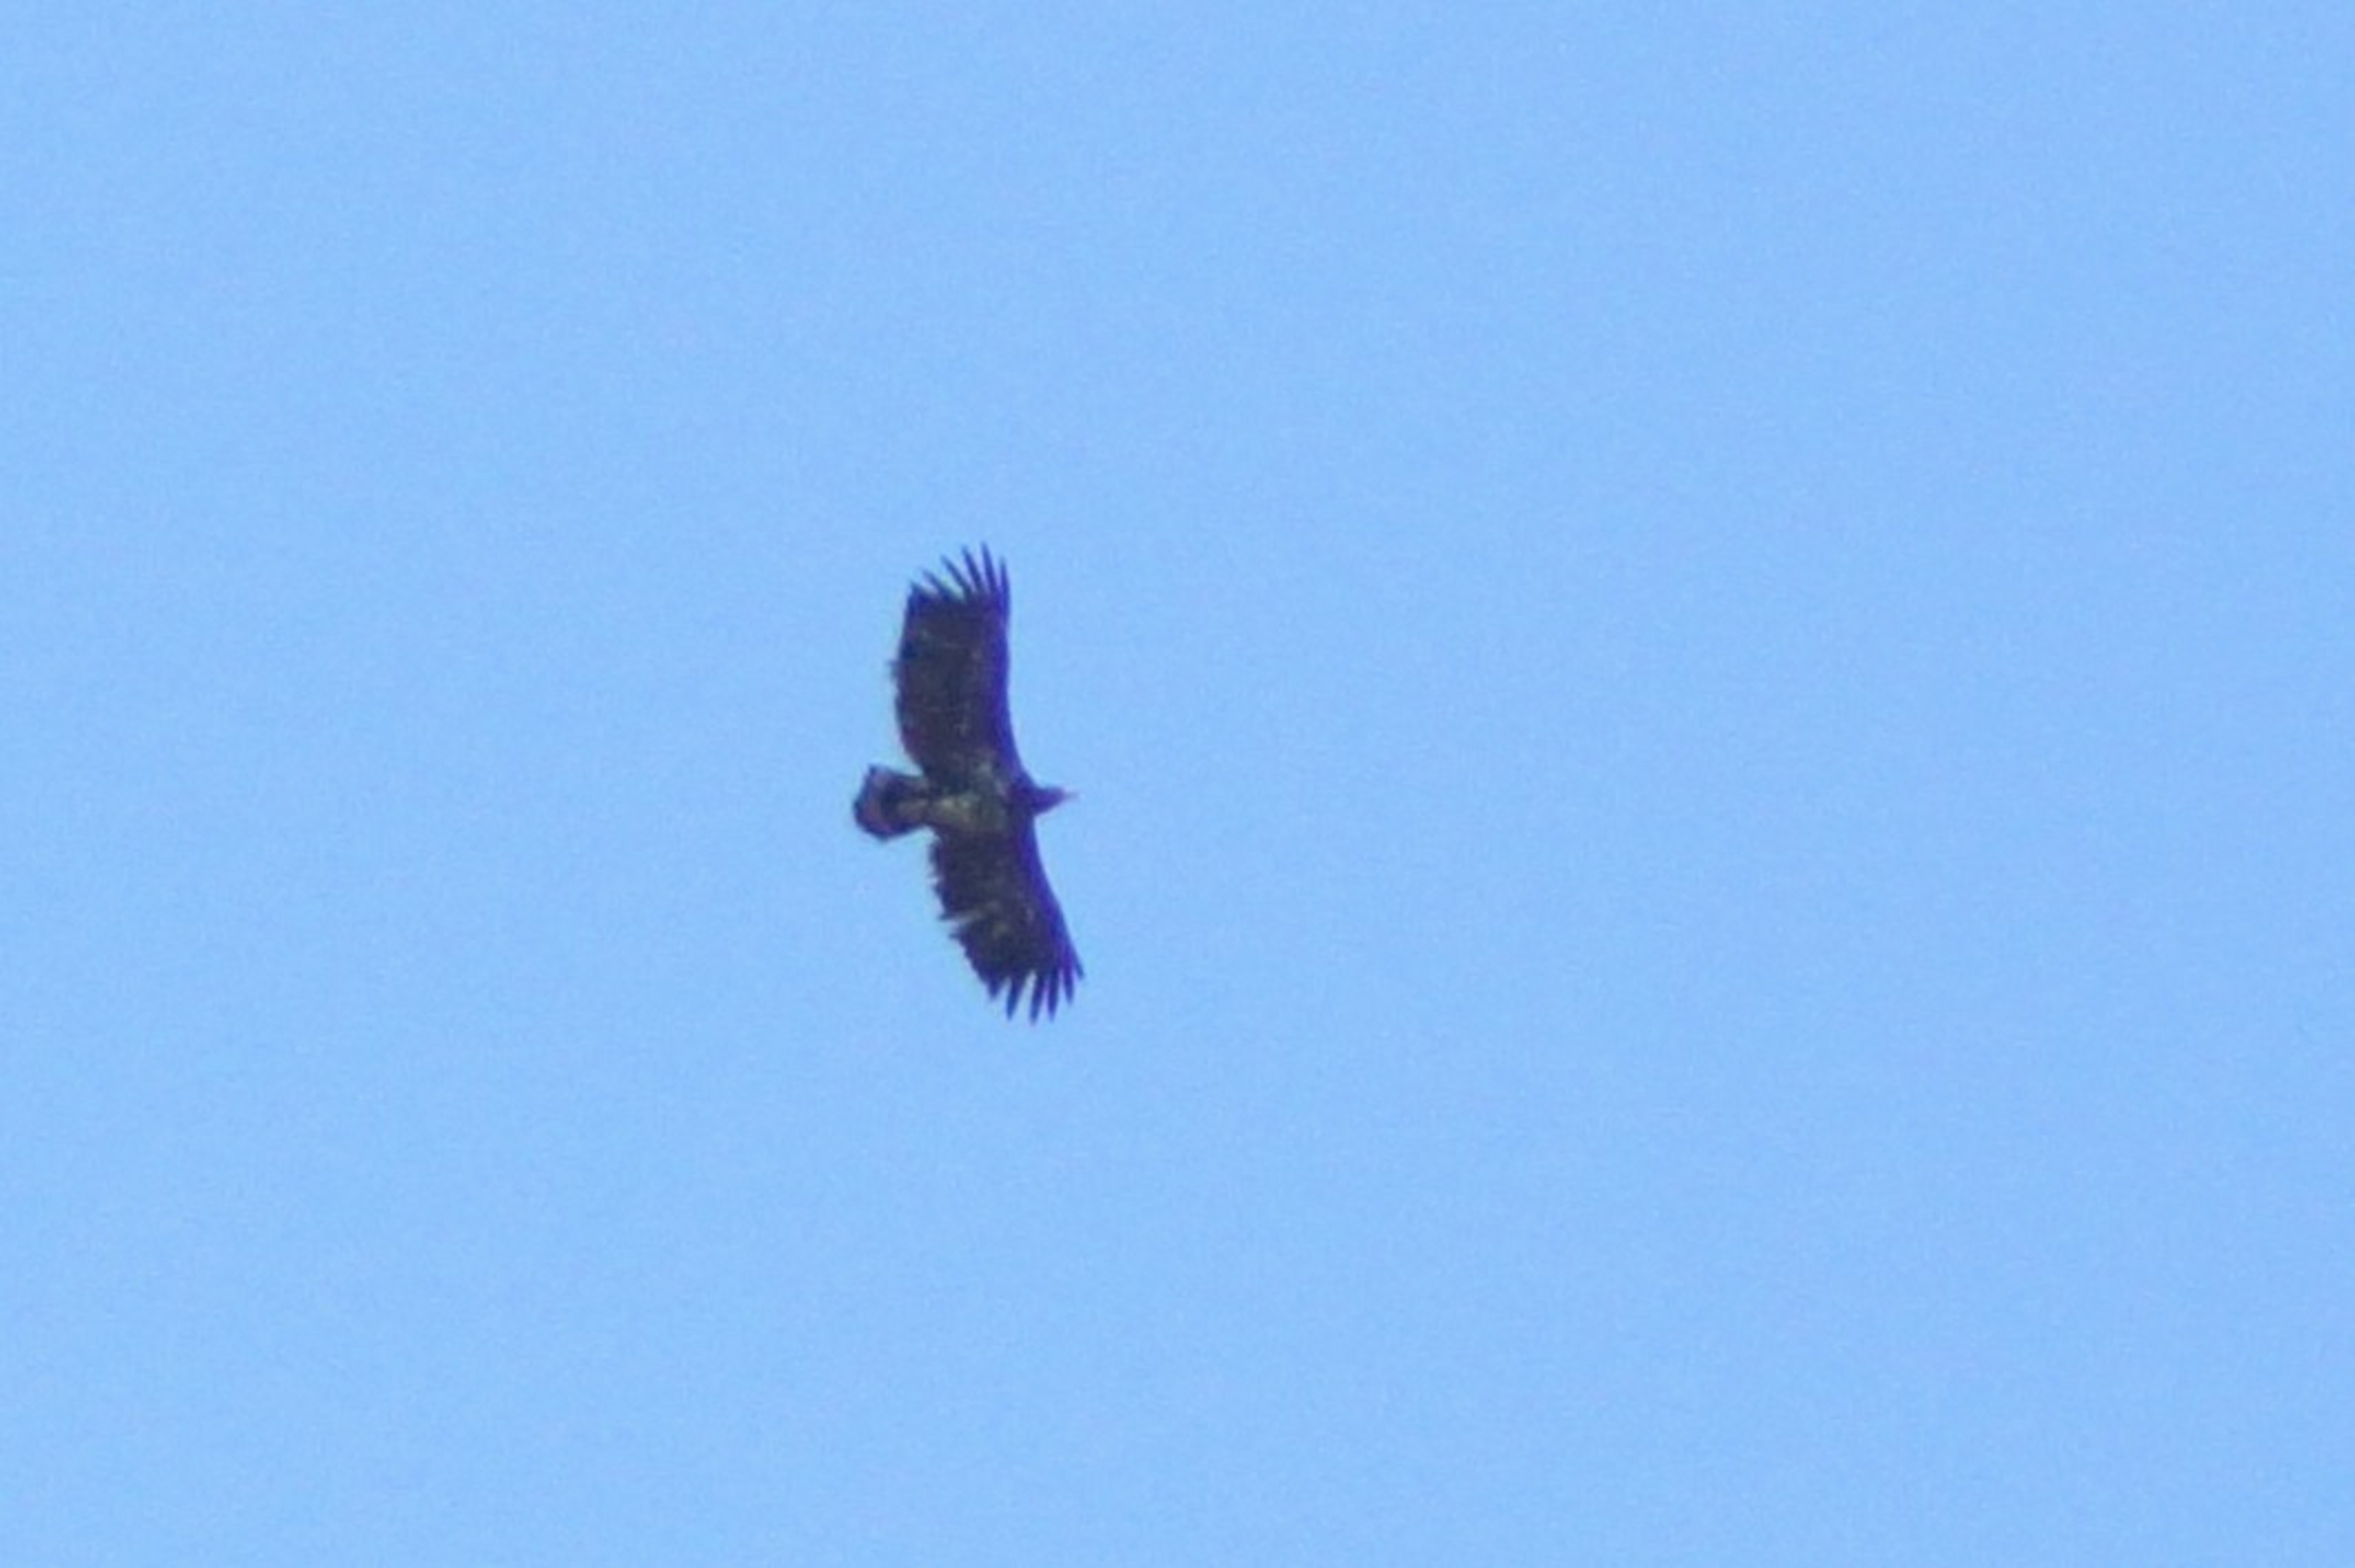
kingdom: Animalia
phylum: Chordata
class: Aves
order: Accipitriformes
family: Accipitridae
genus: Haliaeetus
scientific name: Haliaeetus albicilla
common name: Havørn
